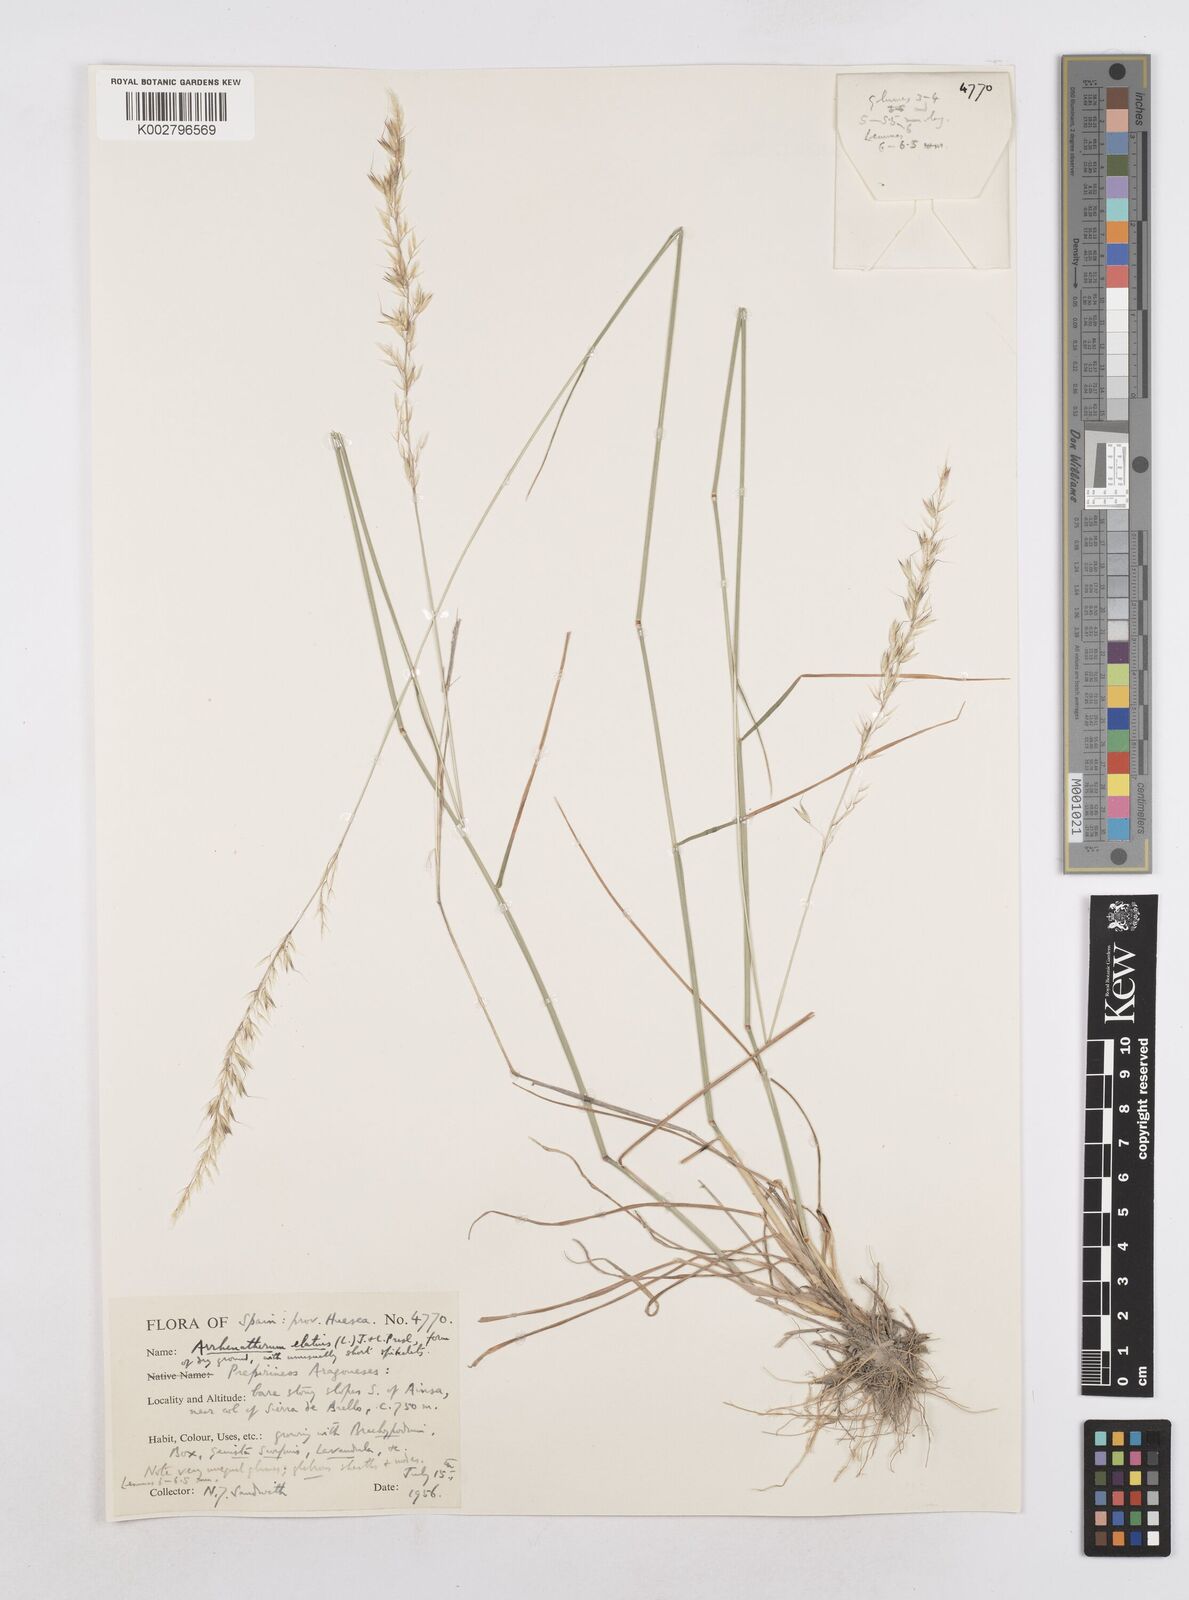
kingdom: Plantae
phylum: Tracheophyta
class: Liliopsida
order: Poales
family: Poaceae
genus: Arrhenatherum
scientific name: Arrhenatherum elatius
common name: Tall oatgrass
